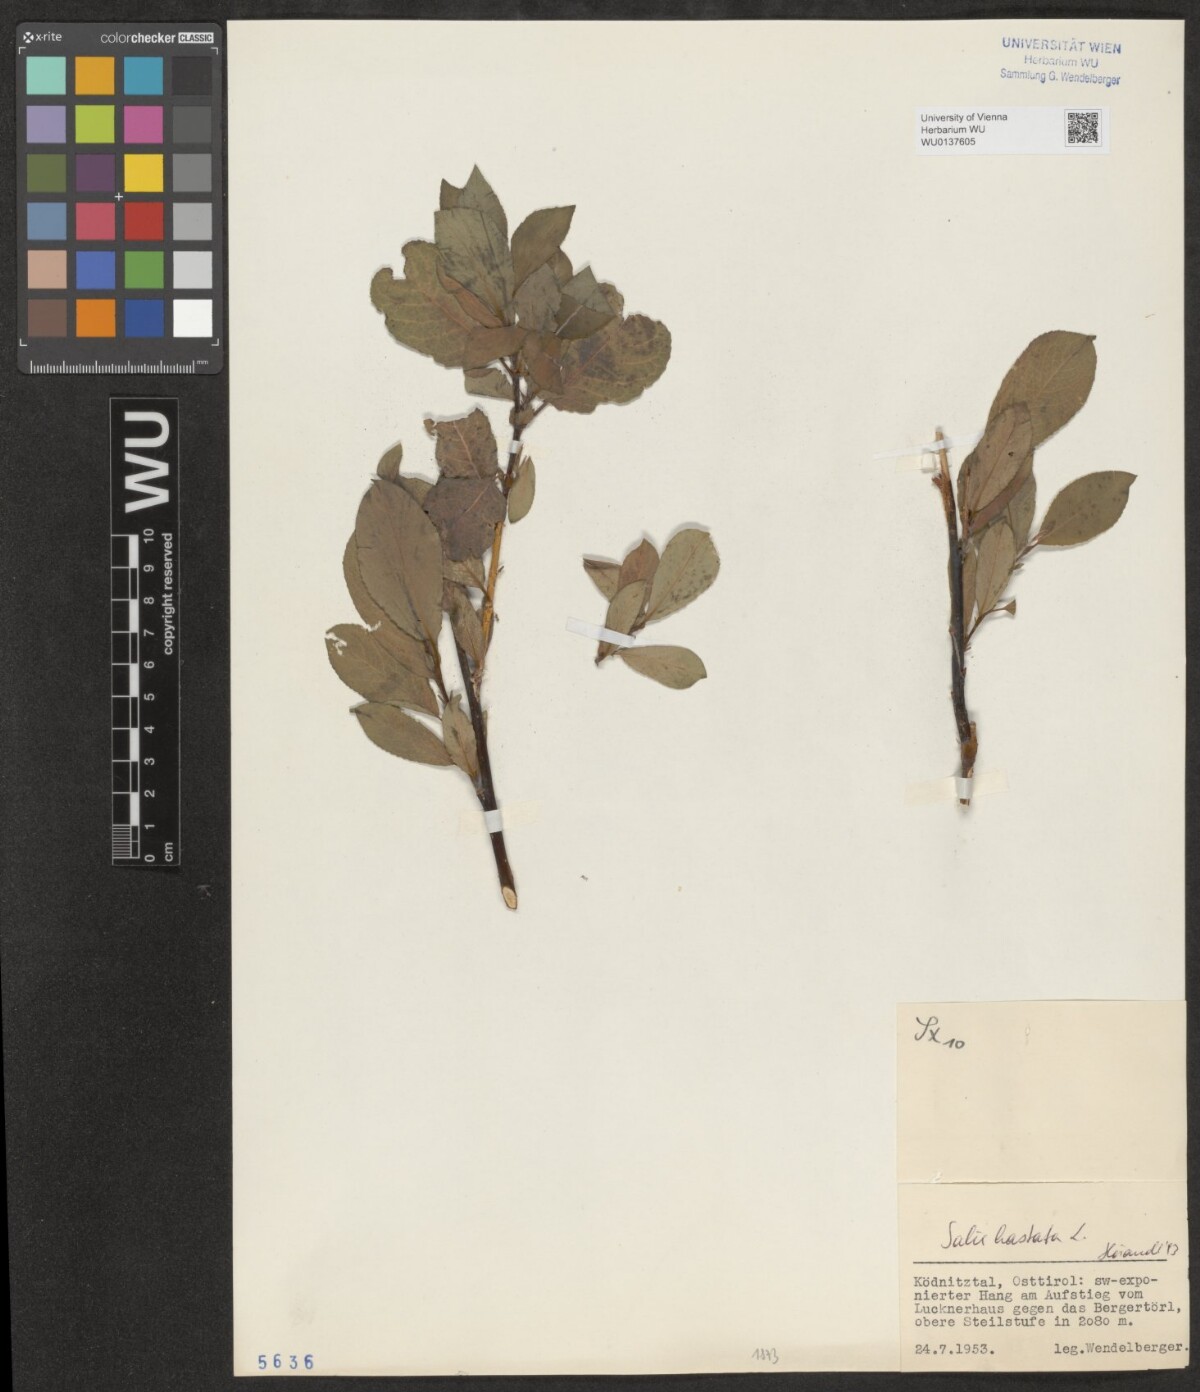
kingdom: Plantae
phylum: Tracheophyta
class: Magnoliopsida
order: Malpighiales
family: Salicaceae
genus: Salix
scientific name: Salix hastata
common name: Halberd willow
